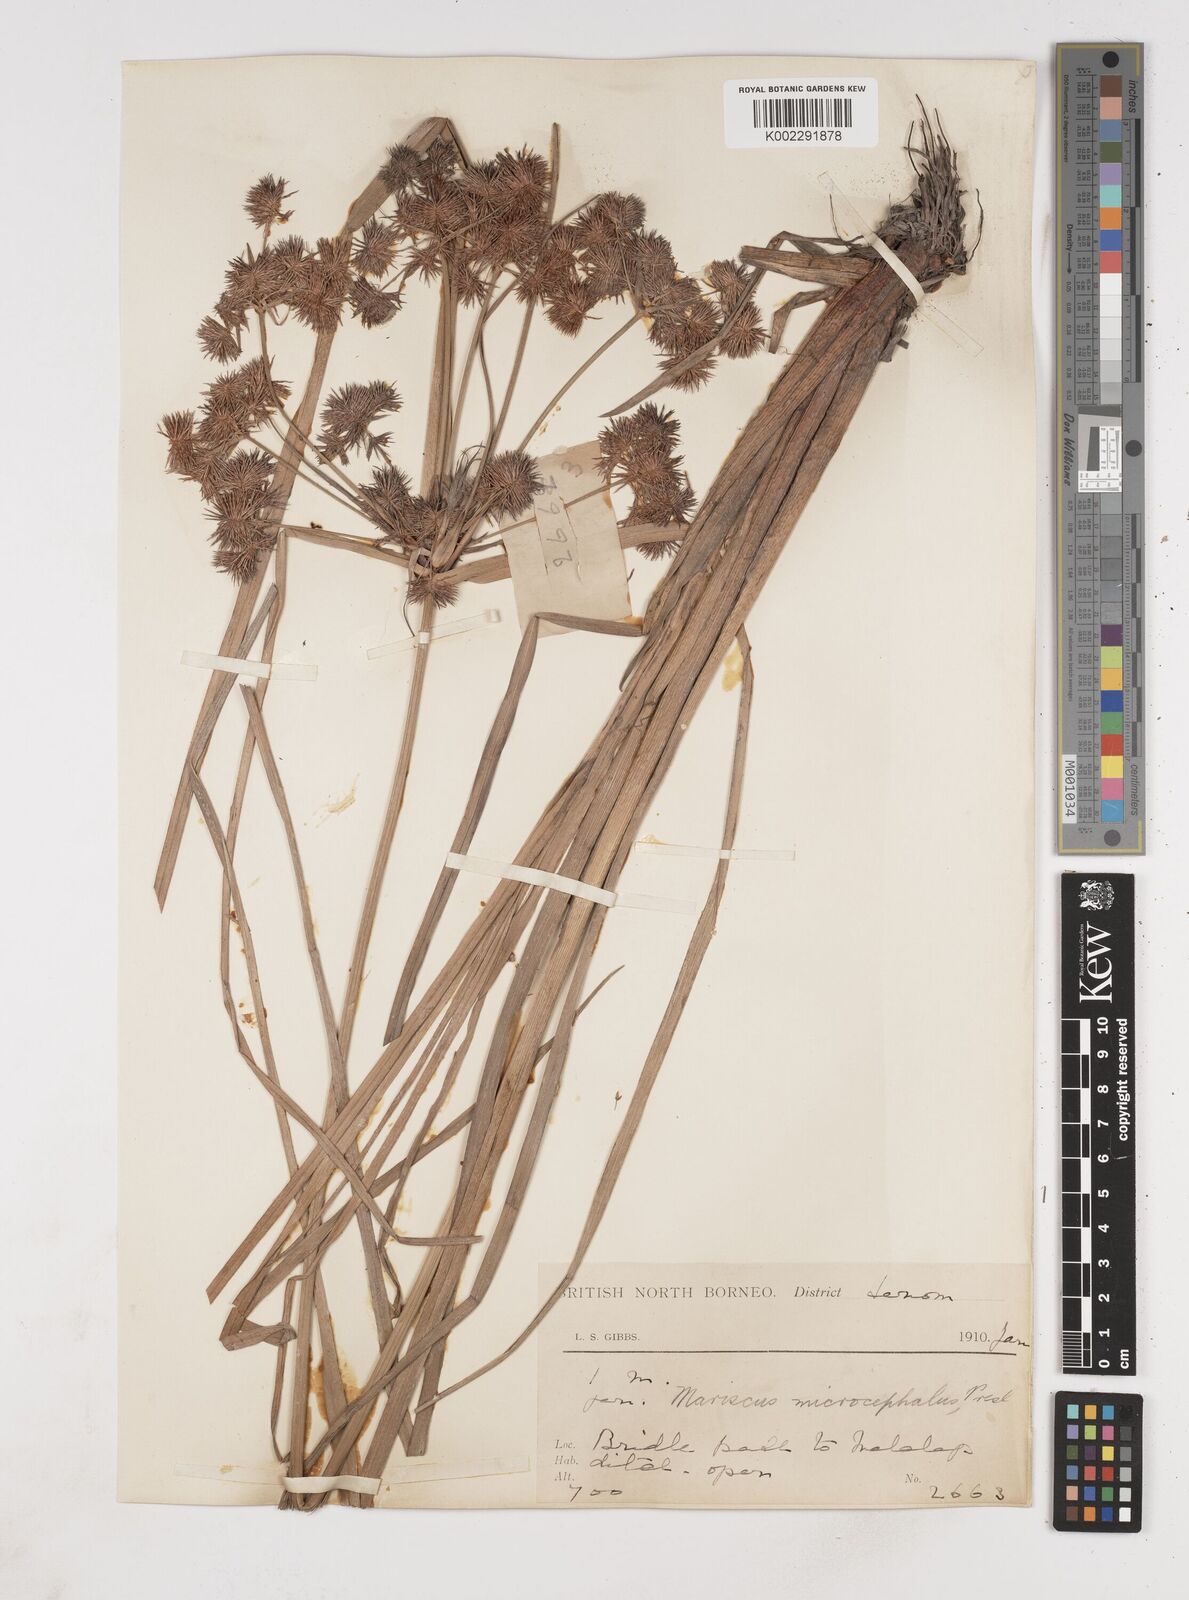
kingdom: Plantae
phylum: Tracheophyta
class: Liliopsida
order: Poales
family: Cyperaceae
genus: Cyperus
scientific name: Cyperus compactus
